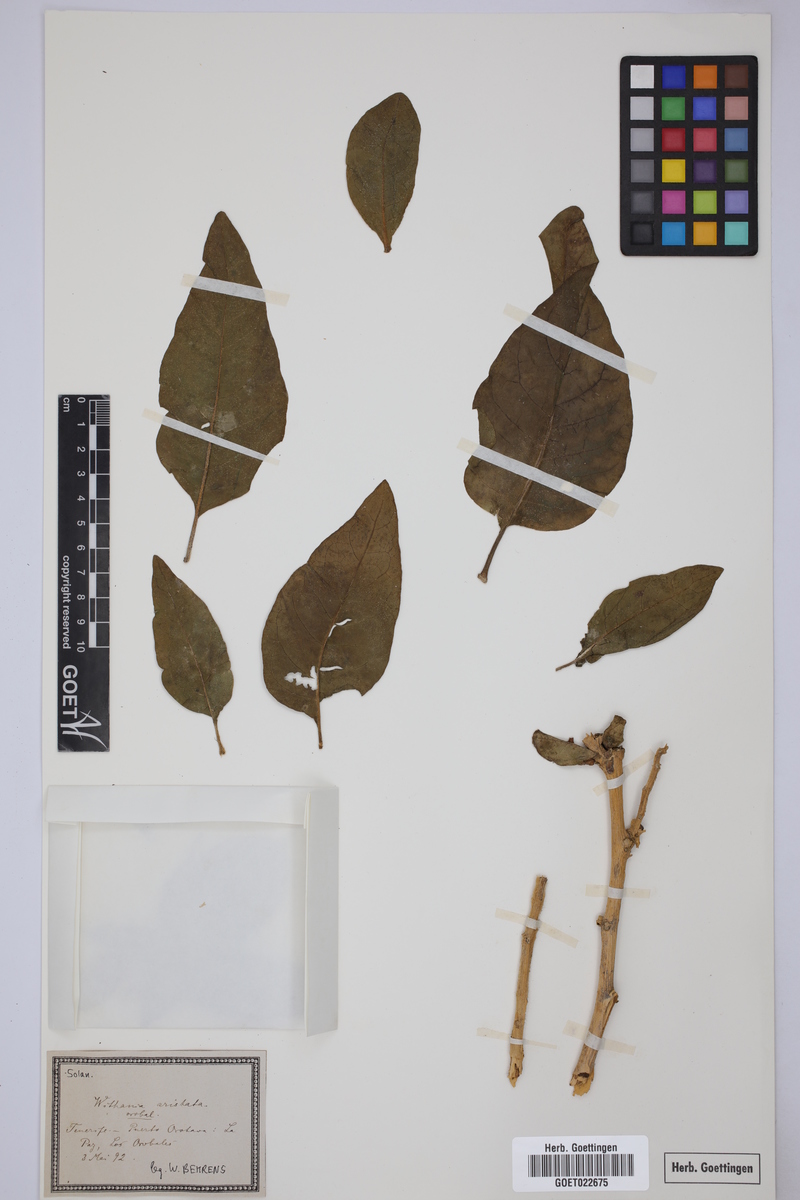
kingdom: Plantae
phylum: Tracheophyta
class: Magnoliopsida
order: Solanales
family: Solanaceae
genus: Withania
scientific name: Withania aristata
